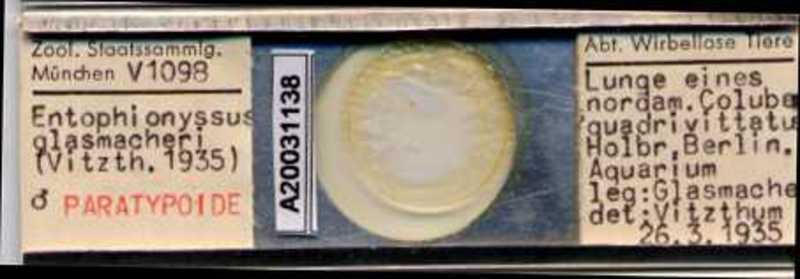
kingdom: Animalia
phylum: Arthropoda
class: Arachnida
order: Mesostigmata
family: Entonyssidae
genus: Entophionyssus
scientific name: Entophionyssus glasmacheri
